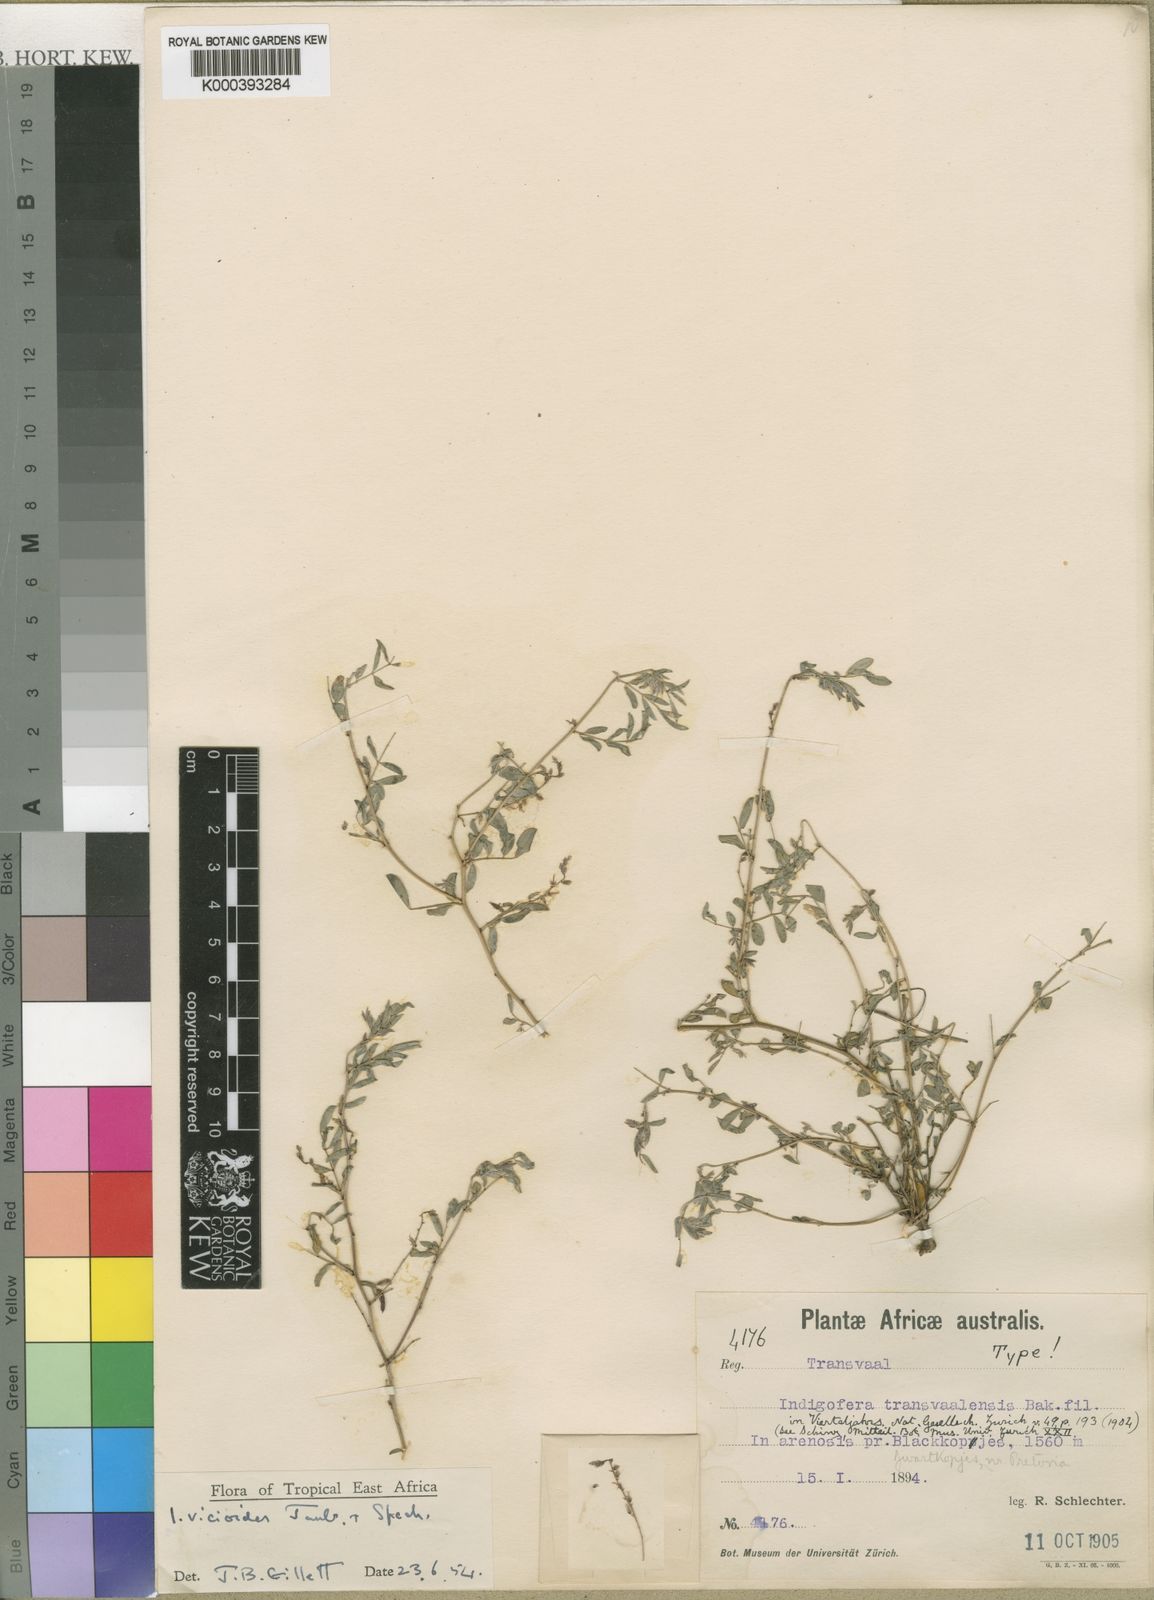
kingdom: Plantae
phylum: Tracheophyta
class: Magnoliopsida
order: Fabales
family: Fabaceae
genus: Indigofera
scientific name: Indigofera transvaalensis
